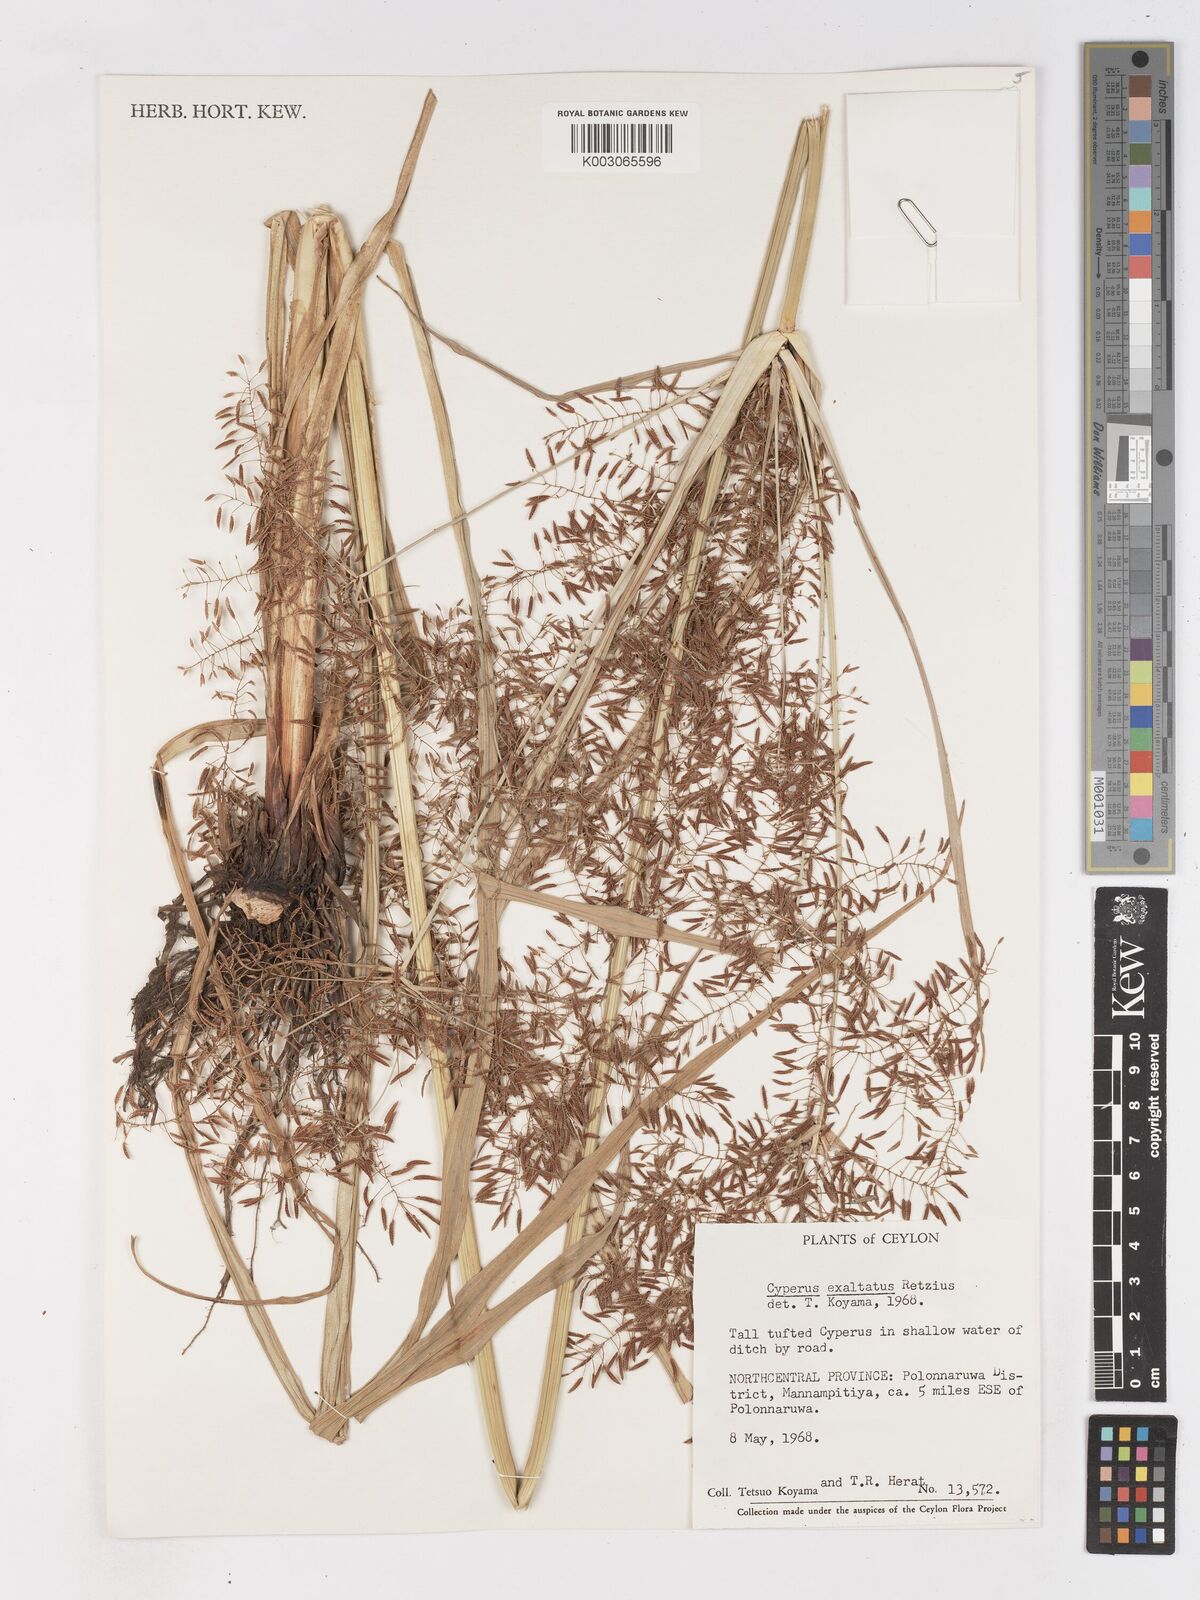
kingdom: Plantae
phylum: Tracheophyta
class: Liliopsida
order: Poales
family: Cyperaceae
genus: Cyperus
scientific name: Cyperus exaltatus
